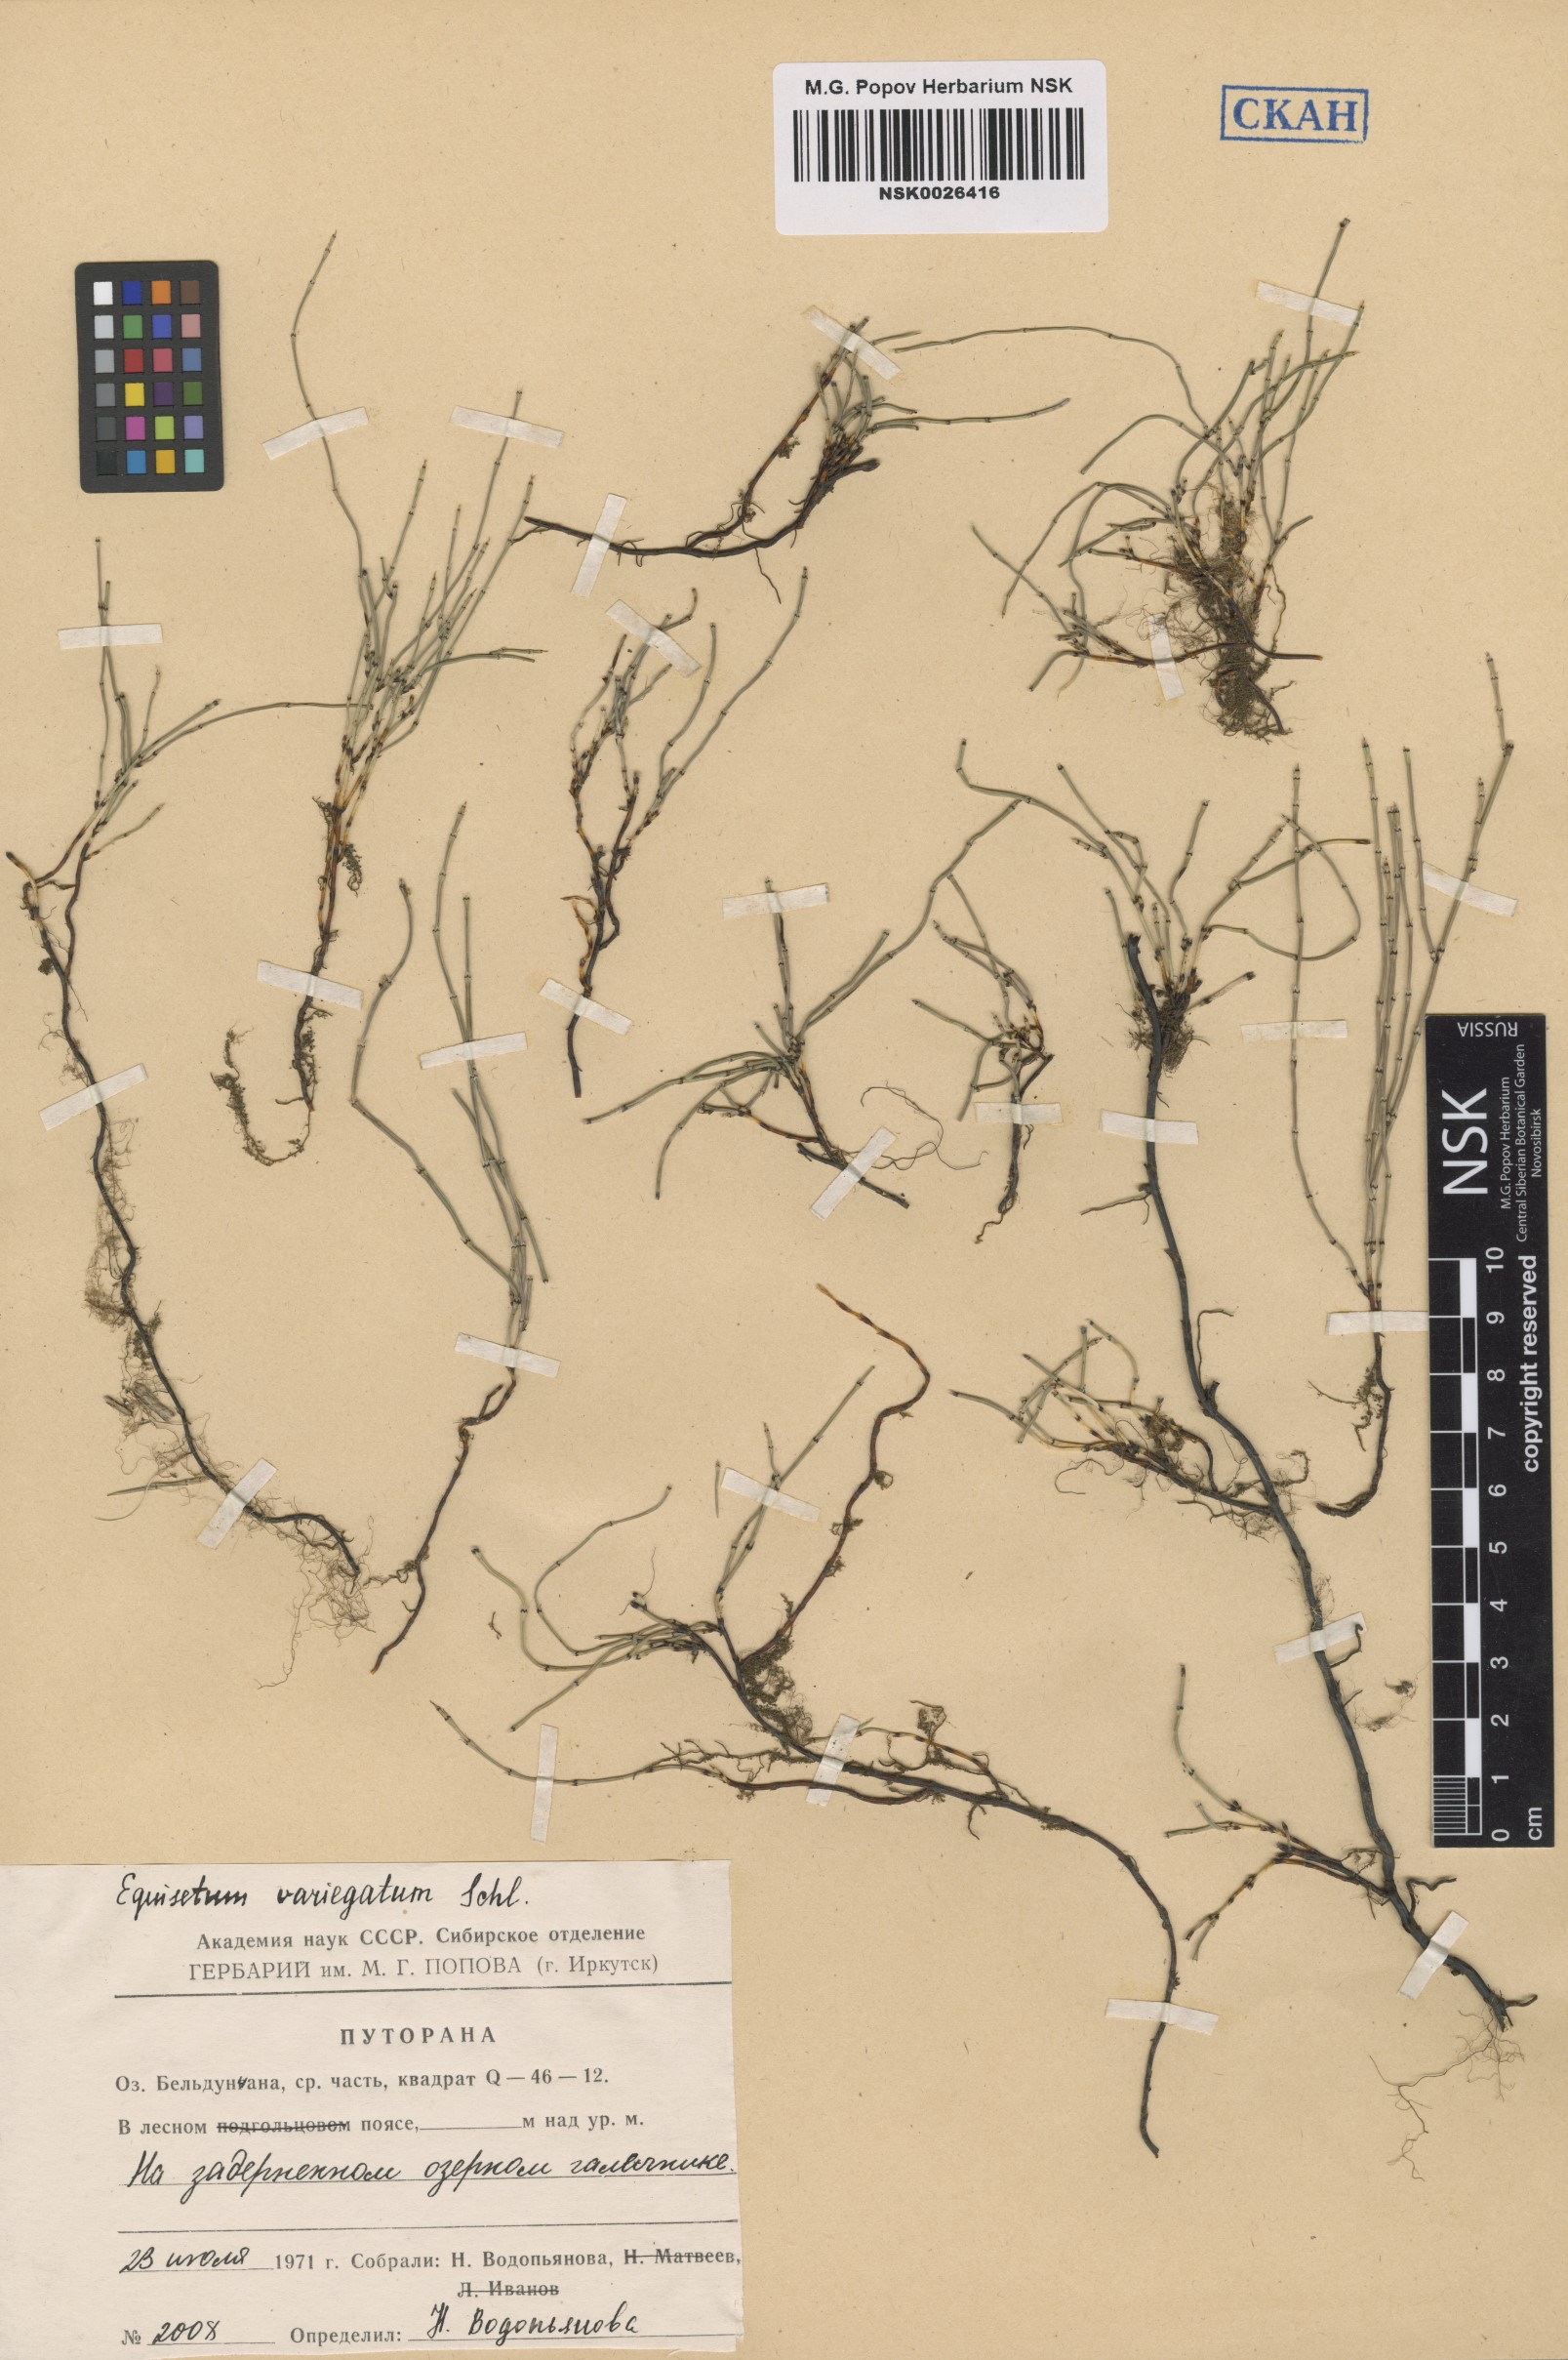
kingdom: Plantae
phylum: Tracheophyta
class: Polypodiopsida
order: Equisetales
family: Equisetaceae
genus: Equisetum
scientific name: Equisetum variegatum
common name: Variegated horsetail
